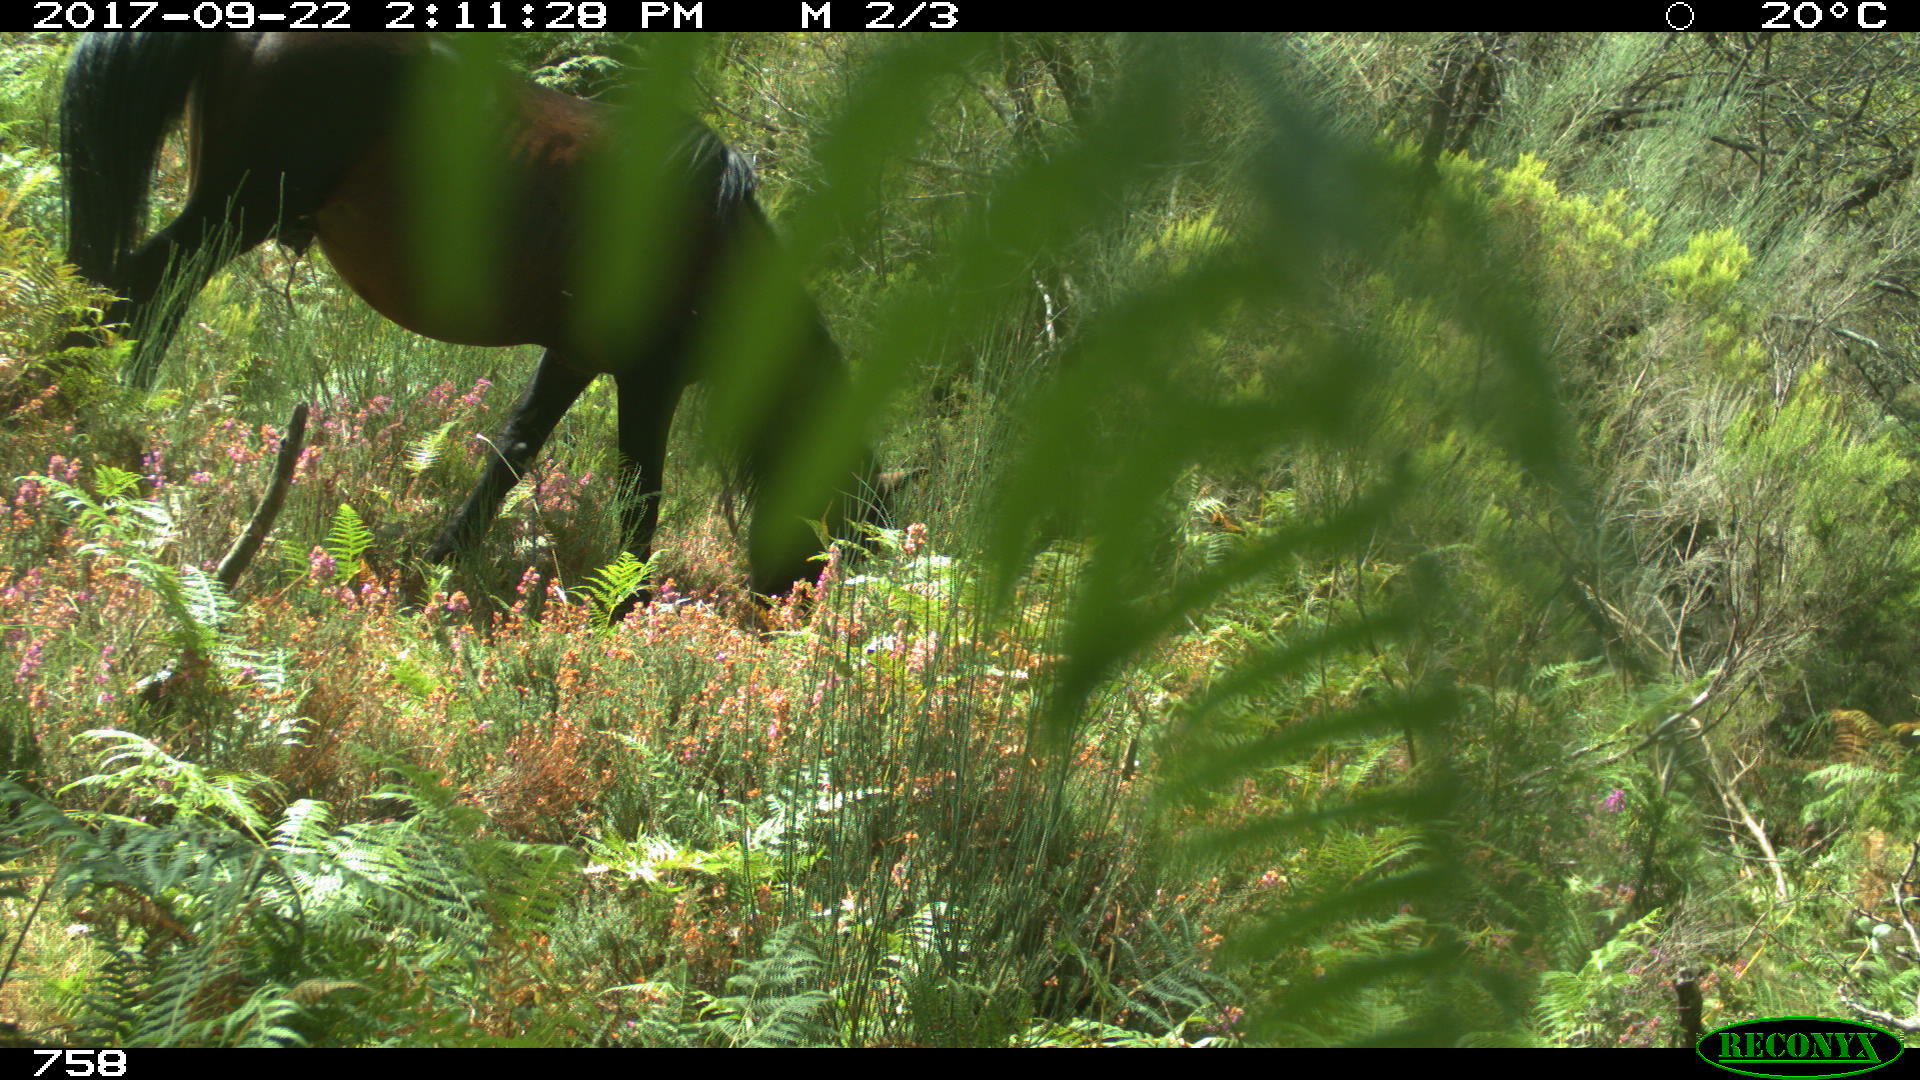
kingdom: Animalia
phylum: Chordata
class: Mammalia
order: Perissodactyla
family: Equidae
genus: Equus
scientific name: Equus caballus
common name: Horse
